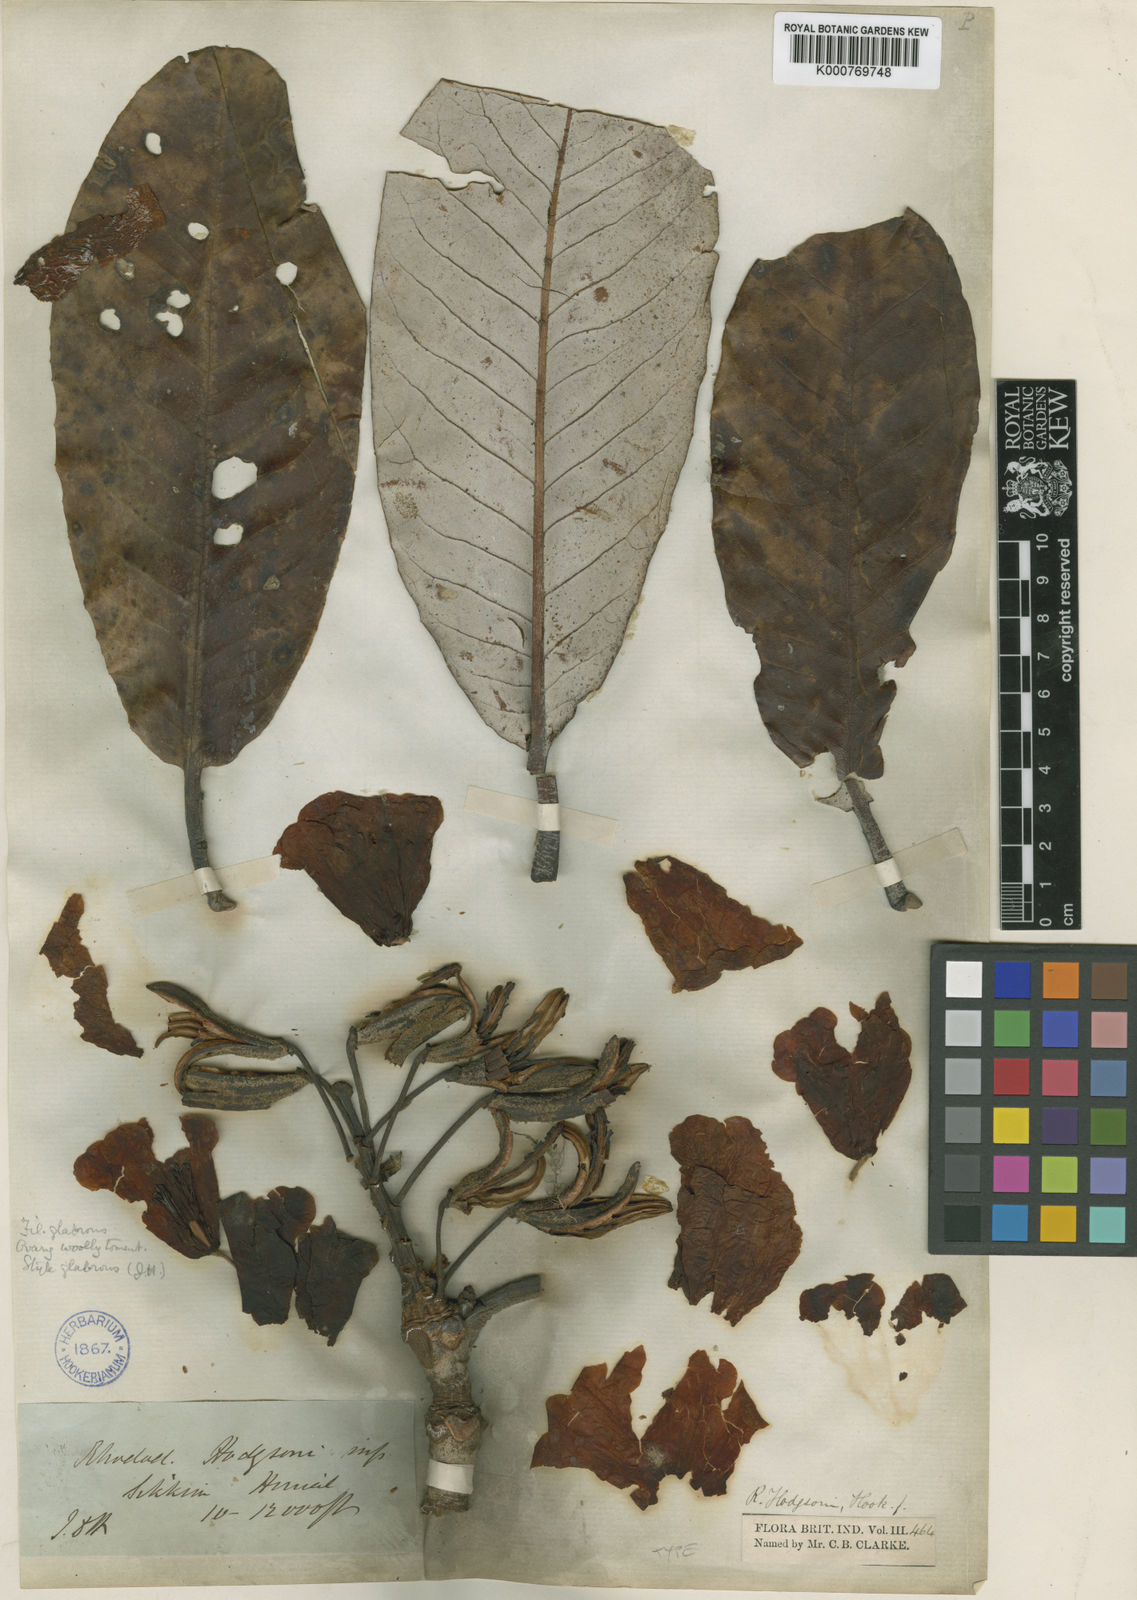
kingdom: Plantae
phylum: Tracheophyta
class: Magnoliopsida
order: Ericales
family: Ericaceae
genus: Rhododendron
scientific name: Rhododendron hodgsonii
